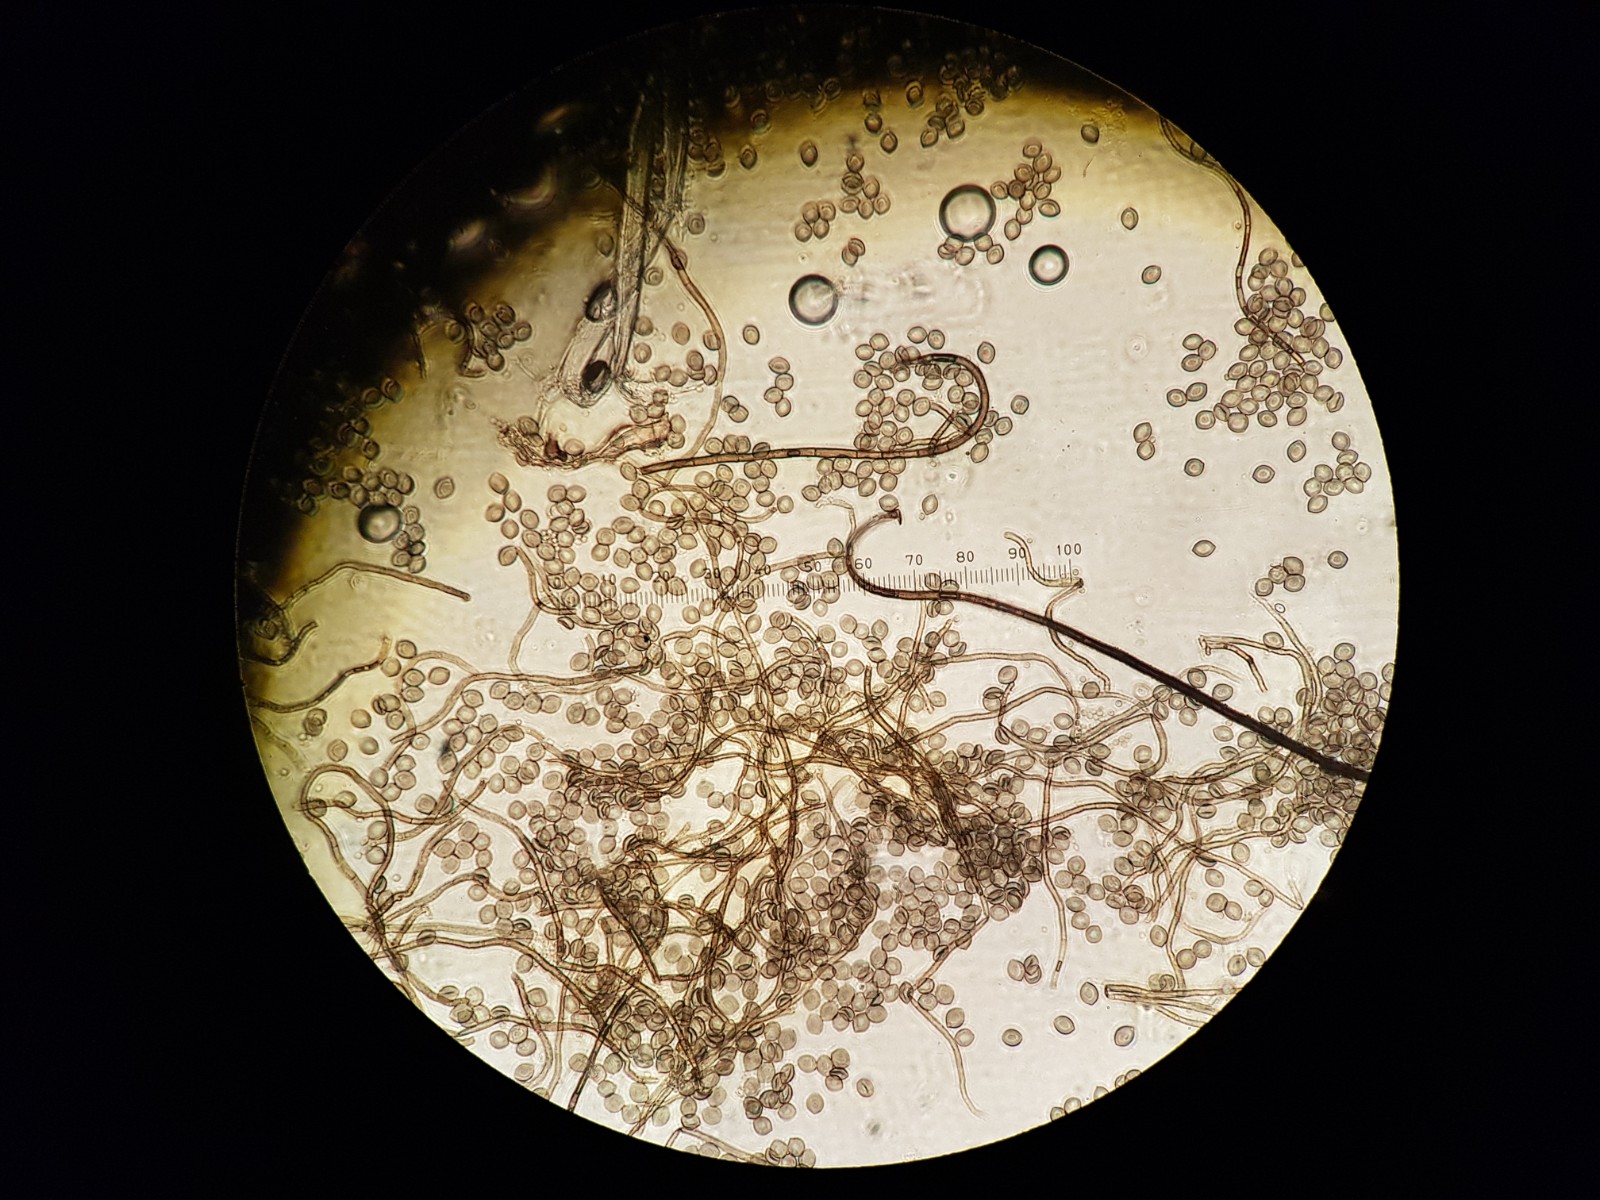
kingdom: Fungi
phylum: Ascomycota
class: Sordariomycetes
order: Sordariales
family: Chaetomiaceae
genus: Chaetomium
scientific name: Chaetomium globosum
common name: gulgrøn søjlekerne
